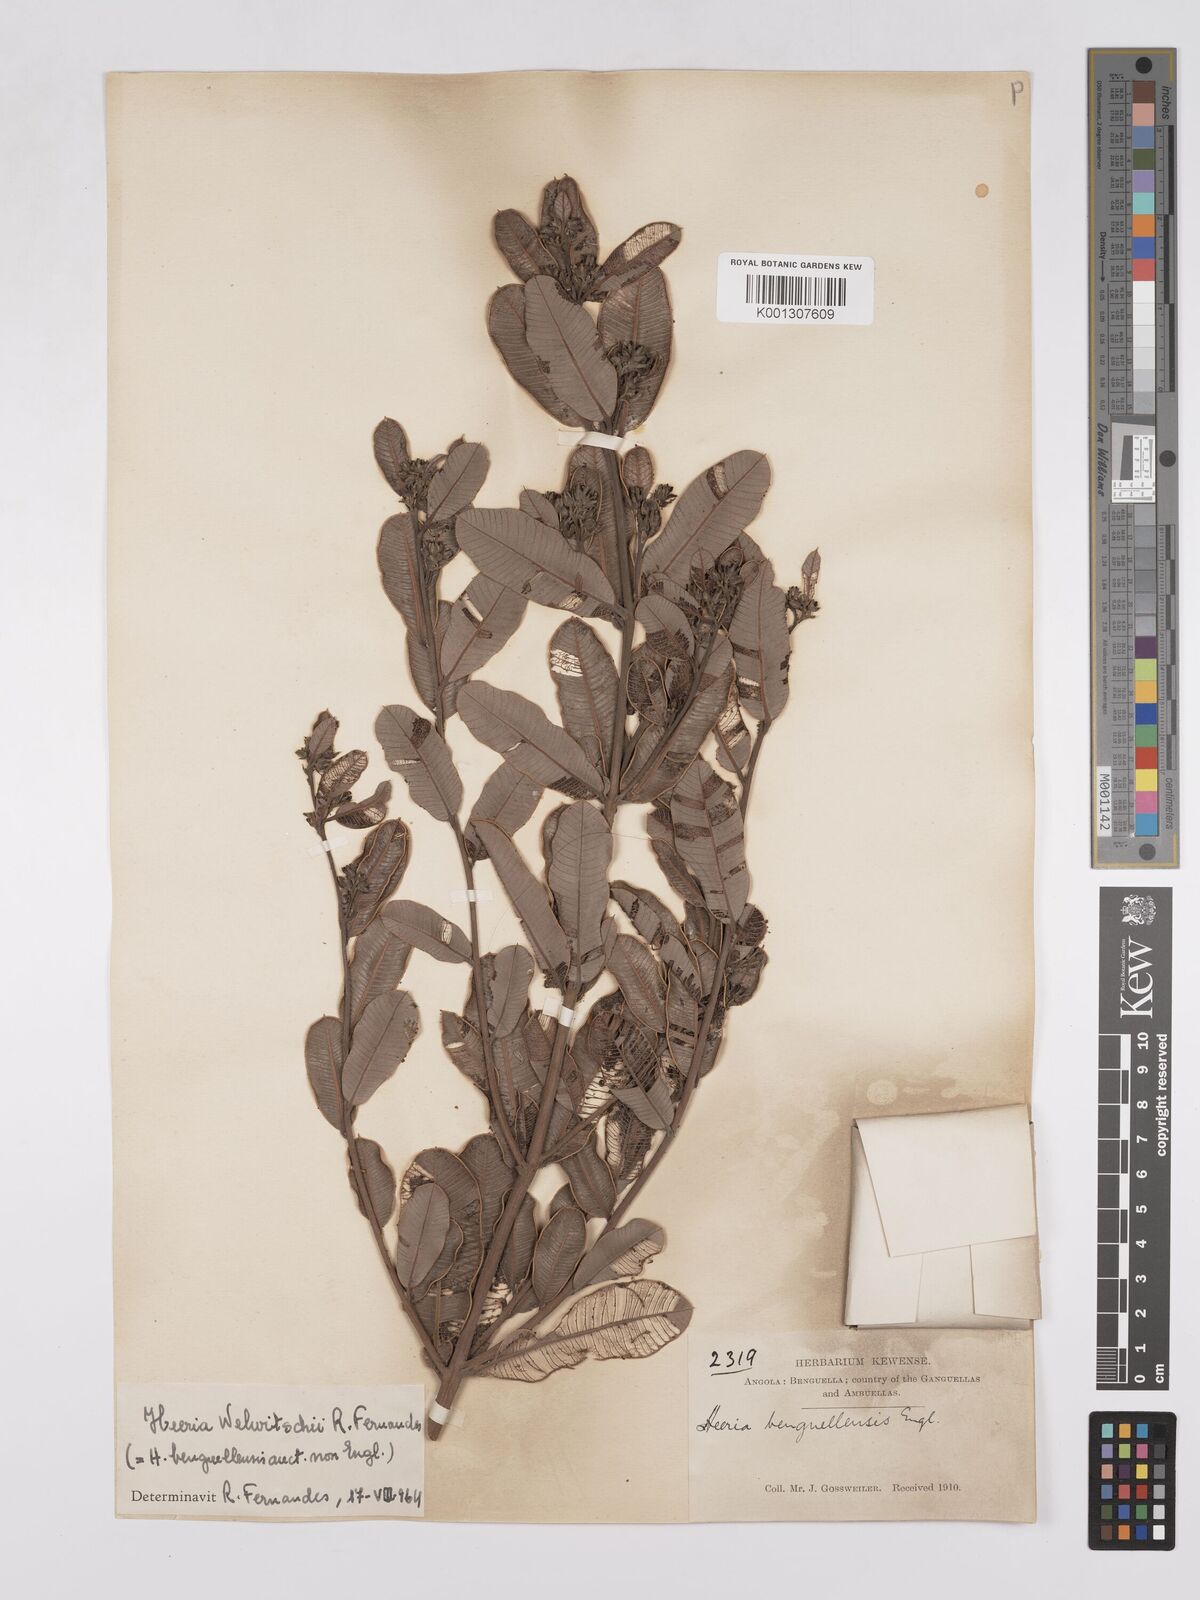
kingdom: Plantae
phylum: Tracheophyta
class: Magnoliopsida
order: Sapindales
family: Anacardiaceae
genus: Ozoroa
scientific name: Ozoroa benguellensis
